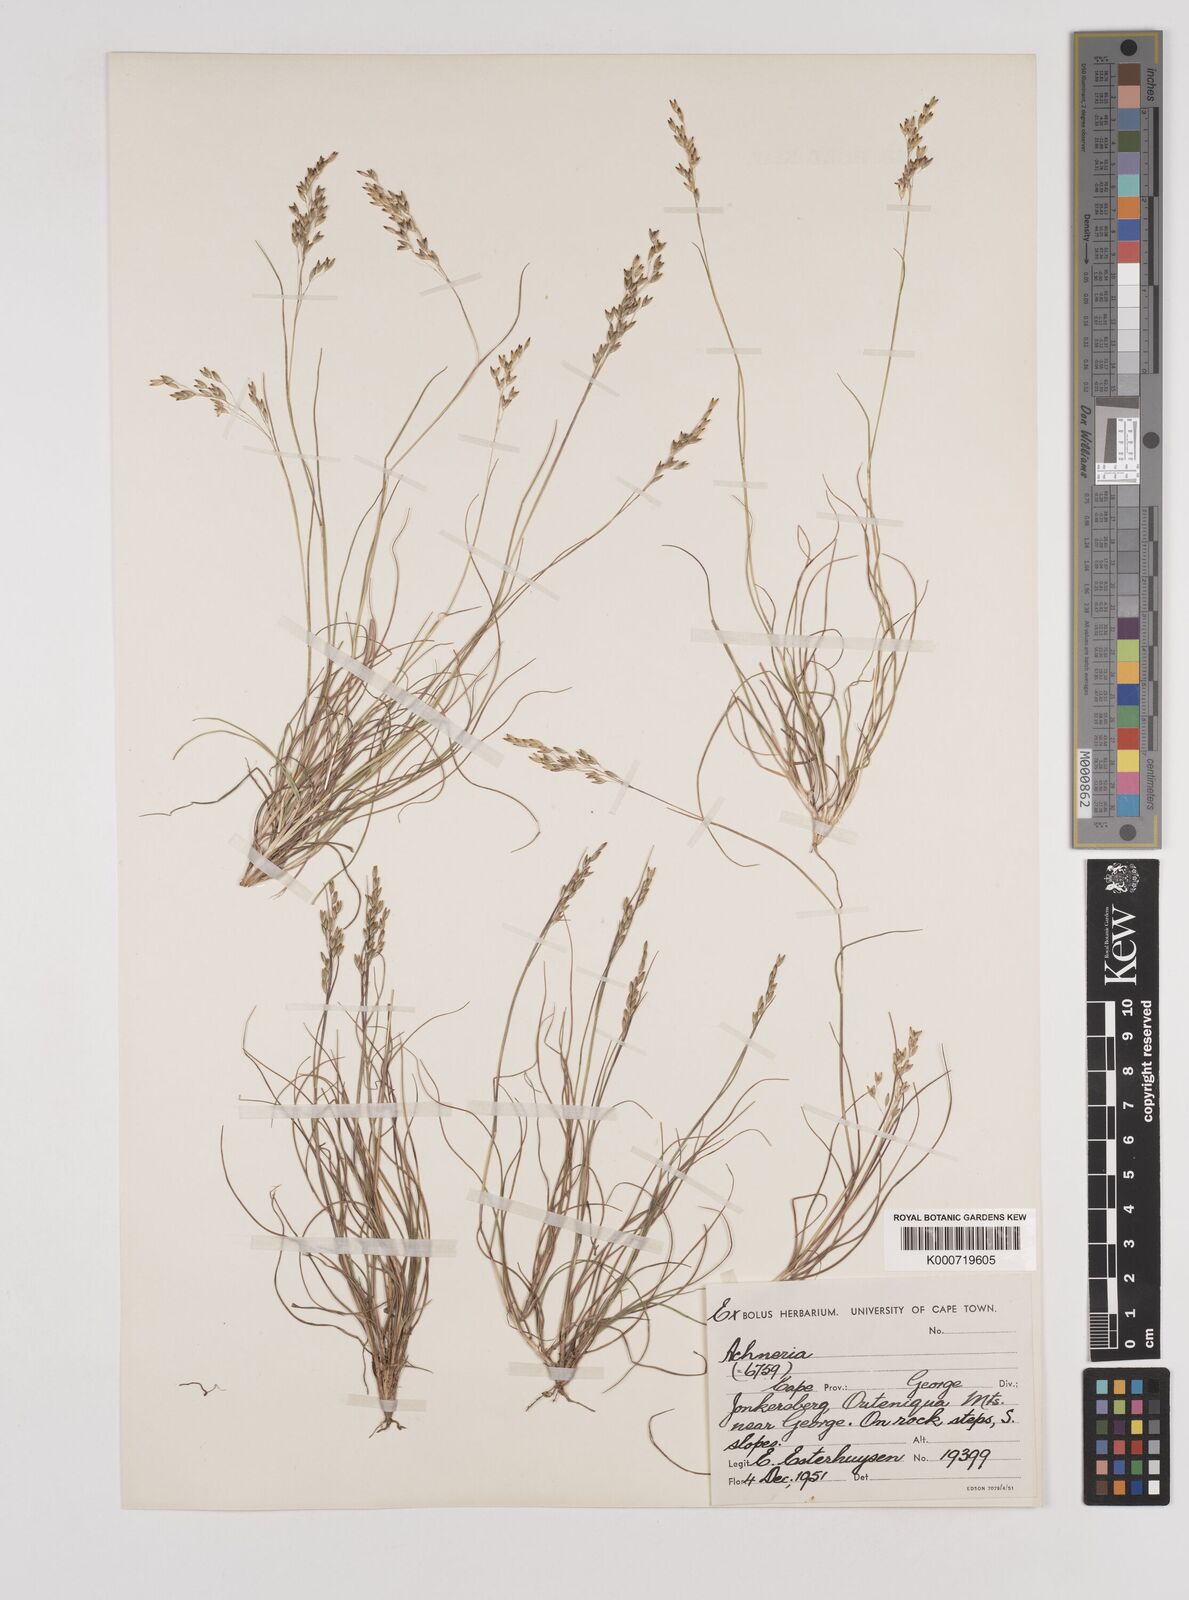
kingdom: Plantae
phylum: Tracheophyta
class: Liliopsida
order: Poales
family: Poaceae
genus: Pentameris
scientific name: Pentameris malouinensis
